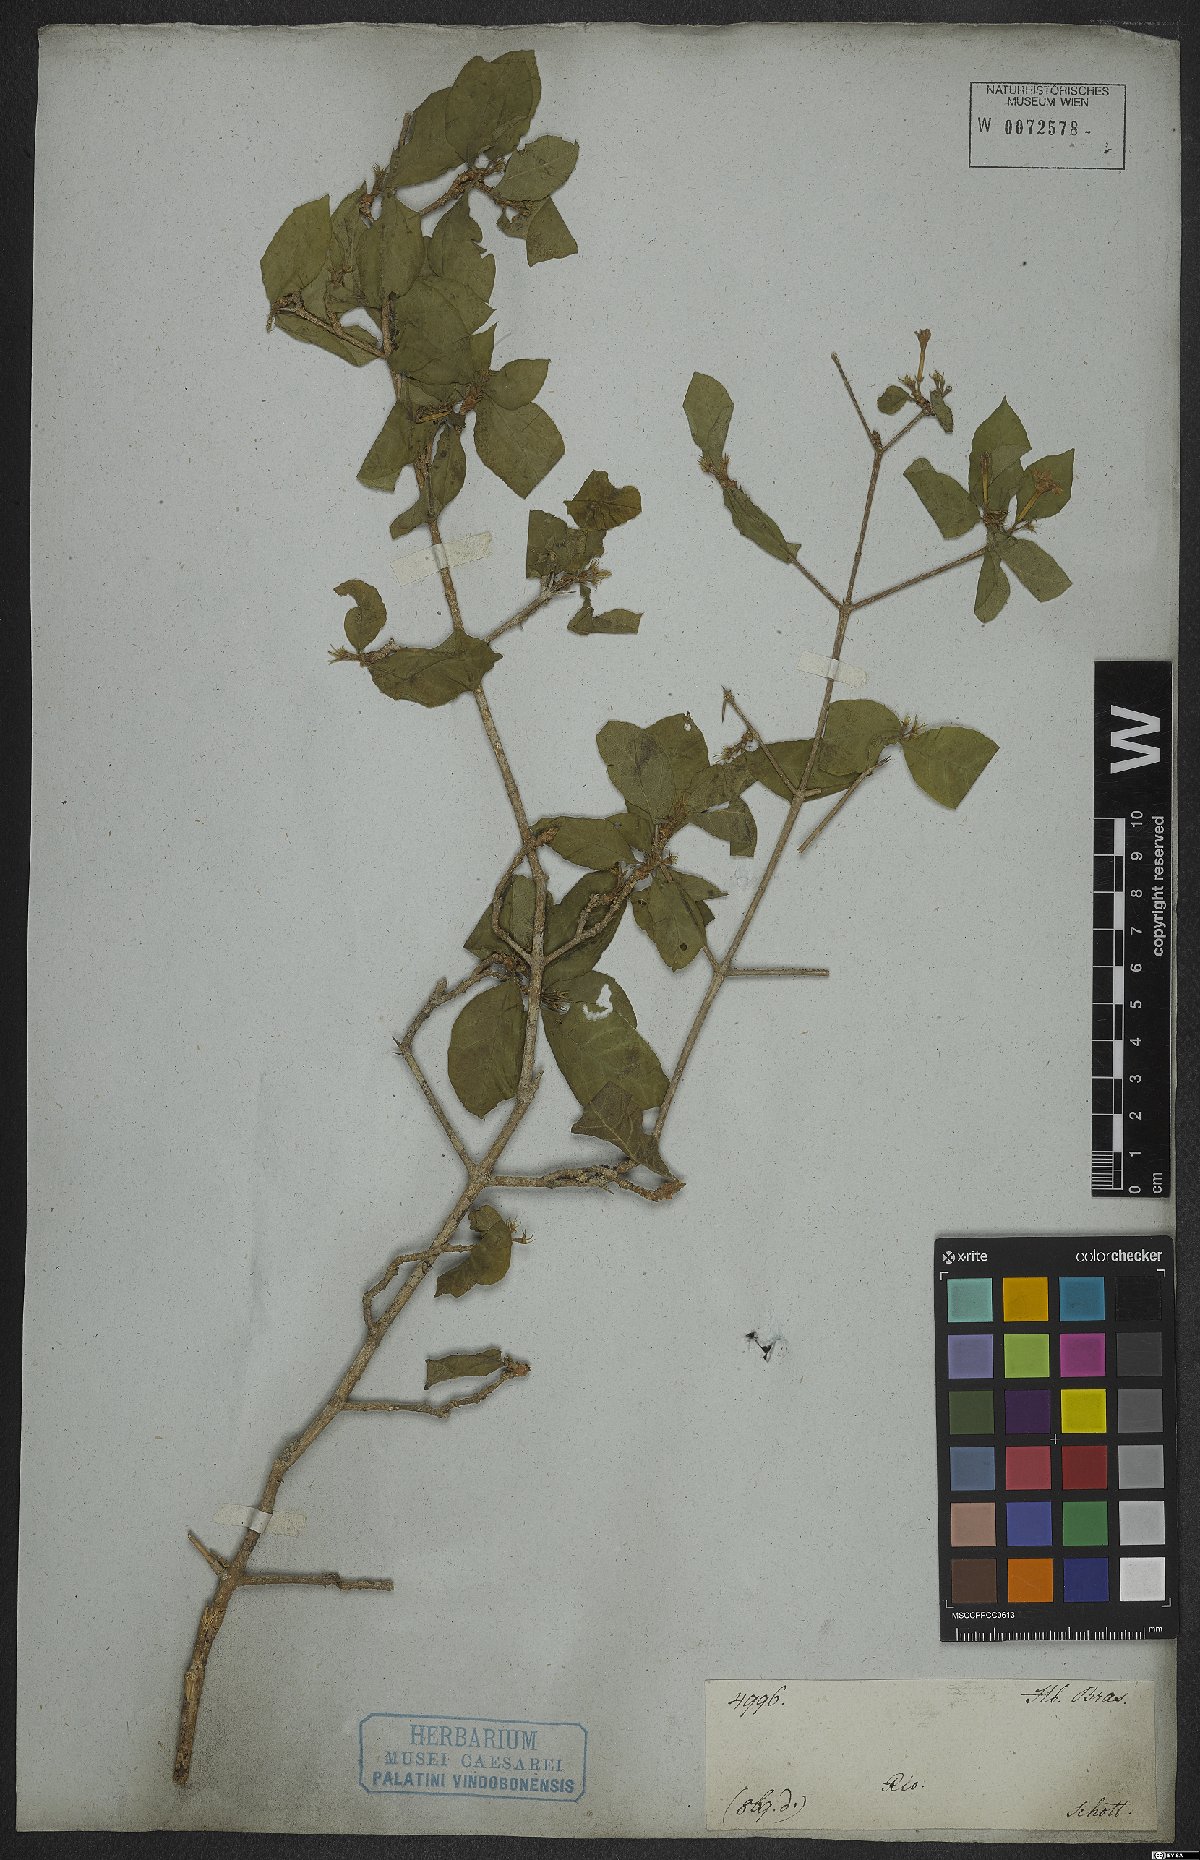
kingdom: Plantae
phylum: Tracheophyta
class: Magnoliopsida
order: Gentianales
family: Rubiaceae
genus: Randia
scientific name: Randia
